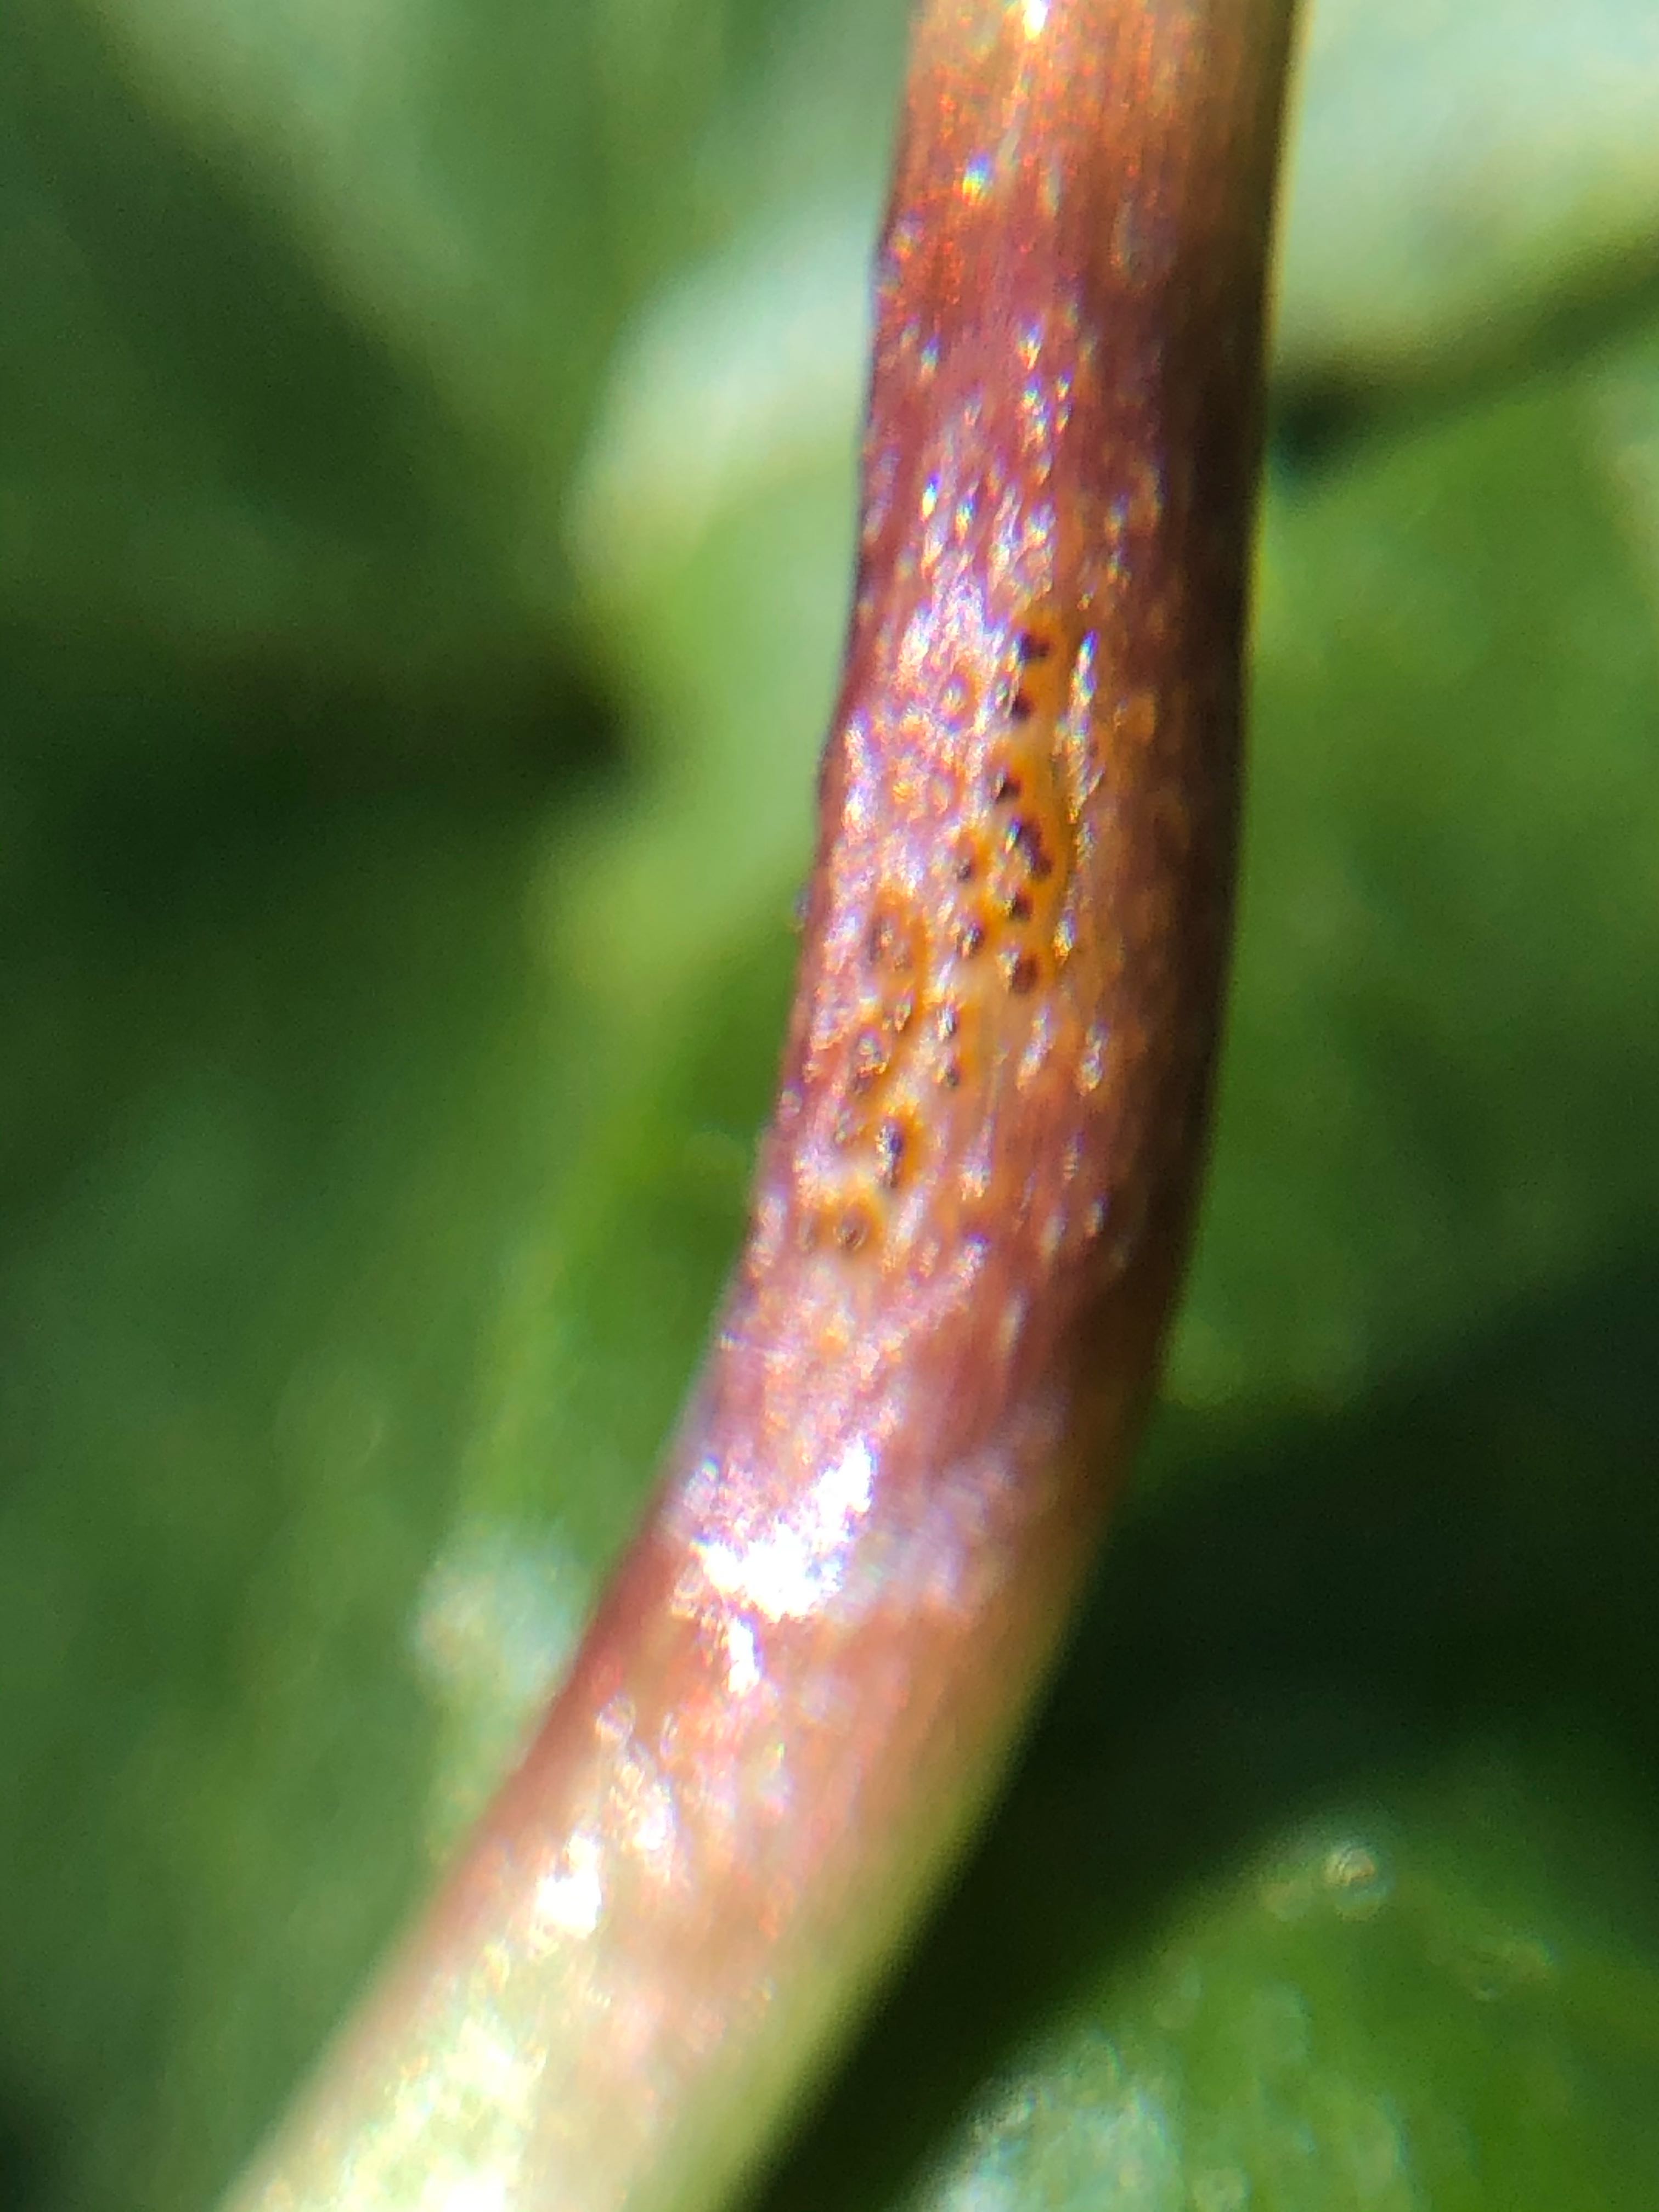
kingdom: Fungi
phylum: Basidiomycota
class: Pucciniomycetes
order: Pucciniales
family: Pucciniaceae
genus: Uromyces
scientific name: Uromyces ficariae
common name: vorterod-encellerust
